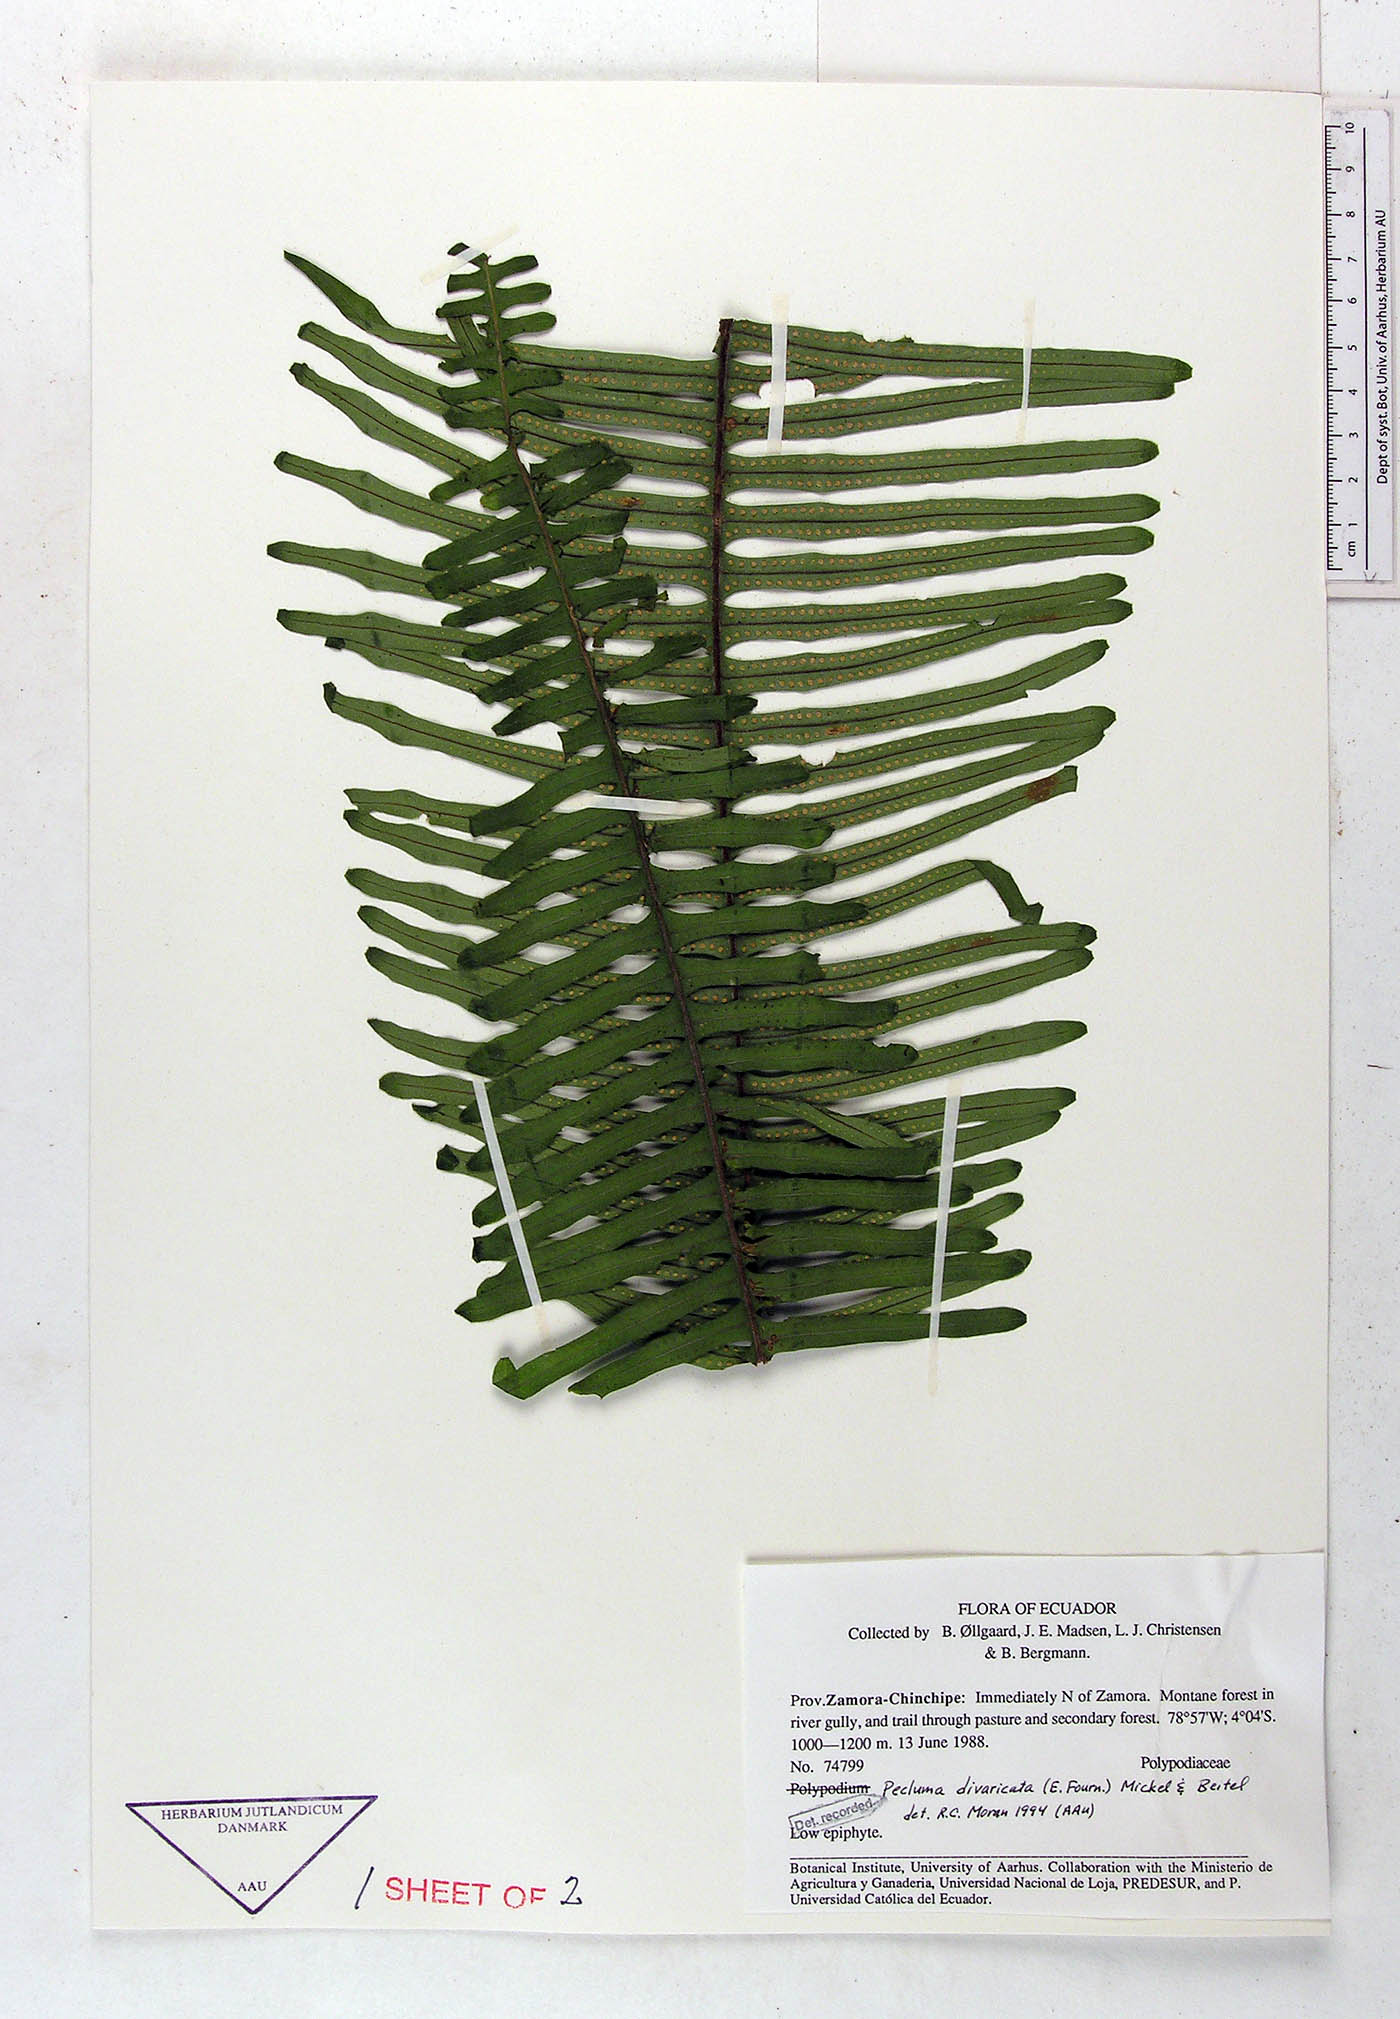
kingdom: Plantae
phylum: Tracheophyta
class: Polypodiopsida
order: Polypodiales
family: Polypodiaceae
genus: Pecluma
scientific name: Pecluma divaricata
